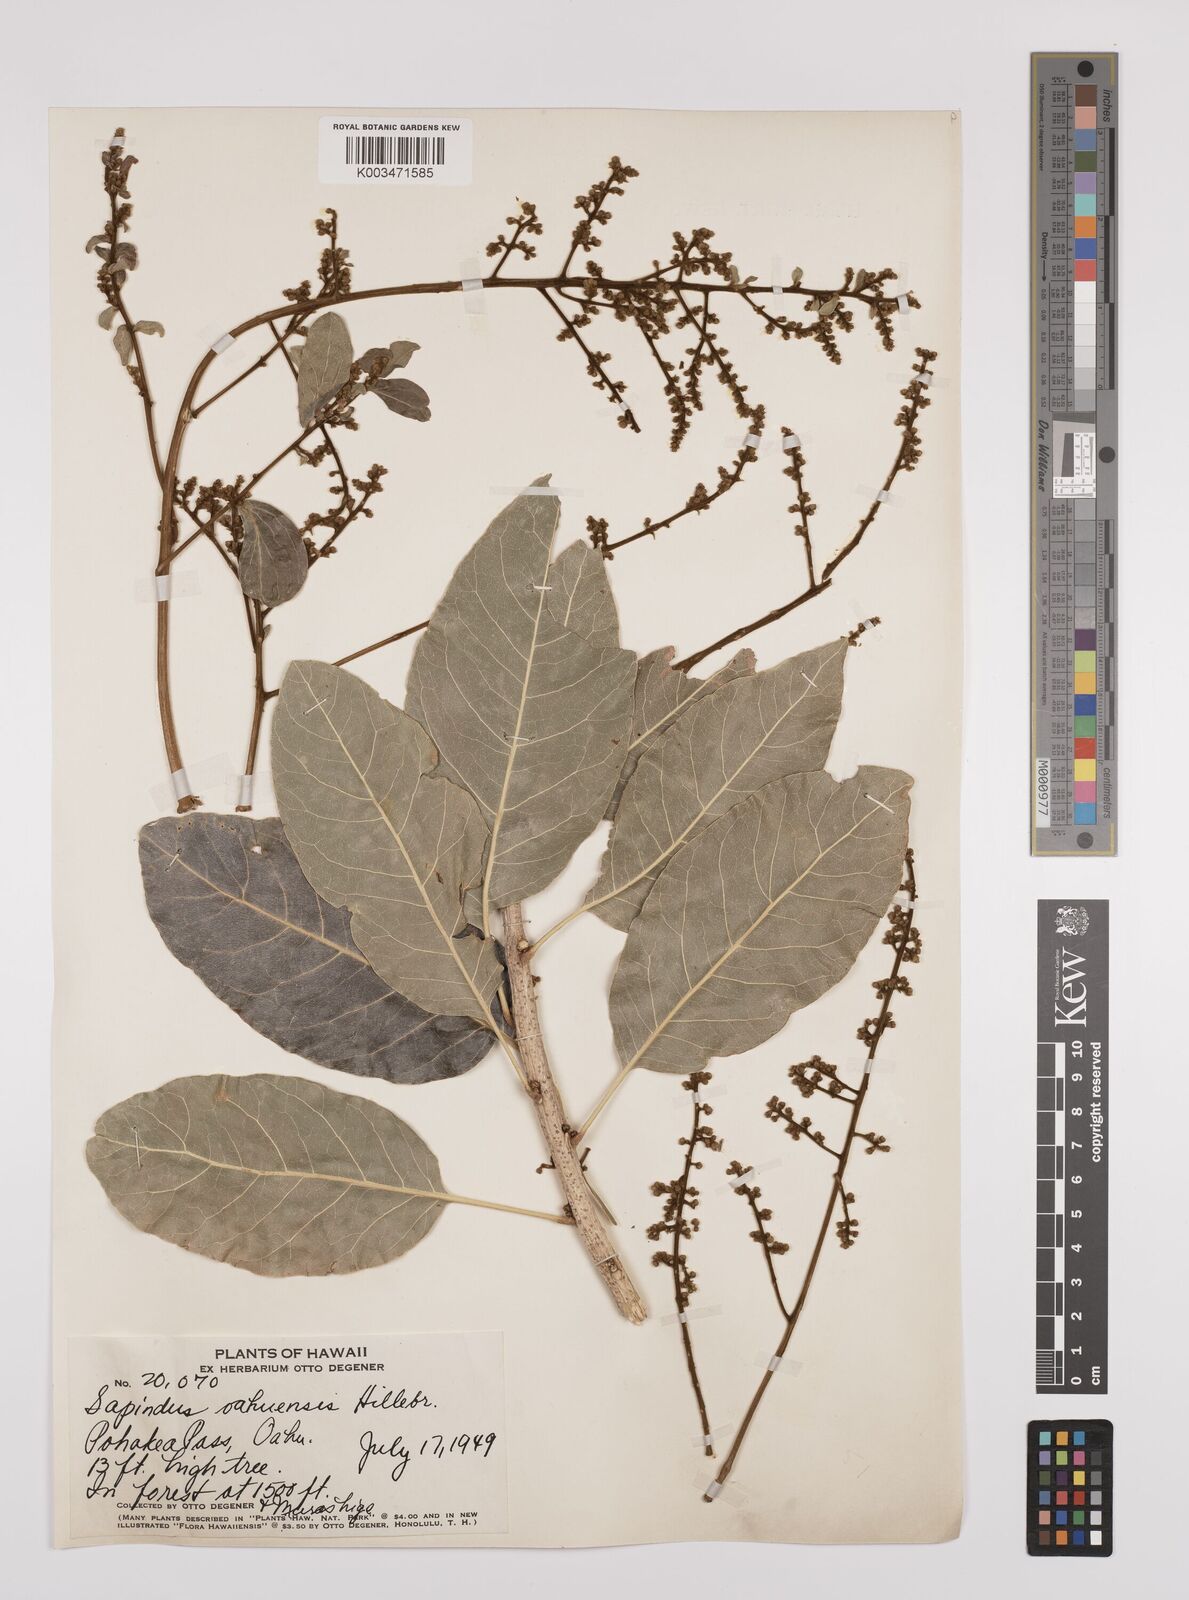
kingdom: Plantae
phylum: Tracheophyta
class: Magnoliopsida
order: Sapindales
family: Sapindaceae
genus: Sapindus
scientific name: Sapindus oahuensis
